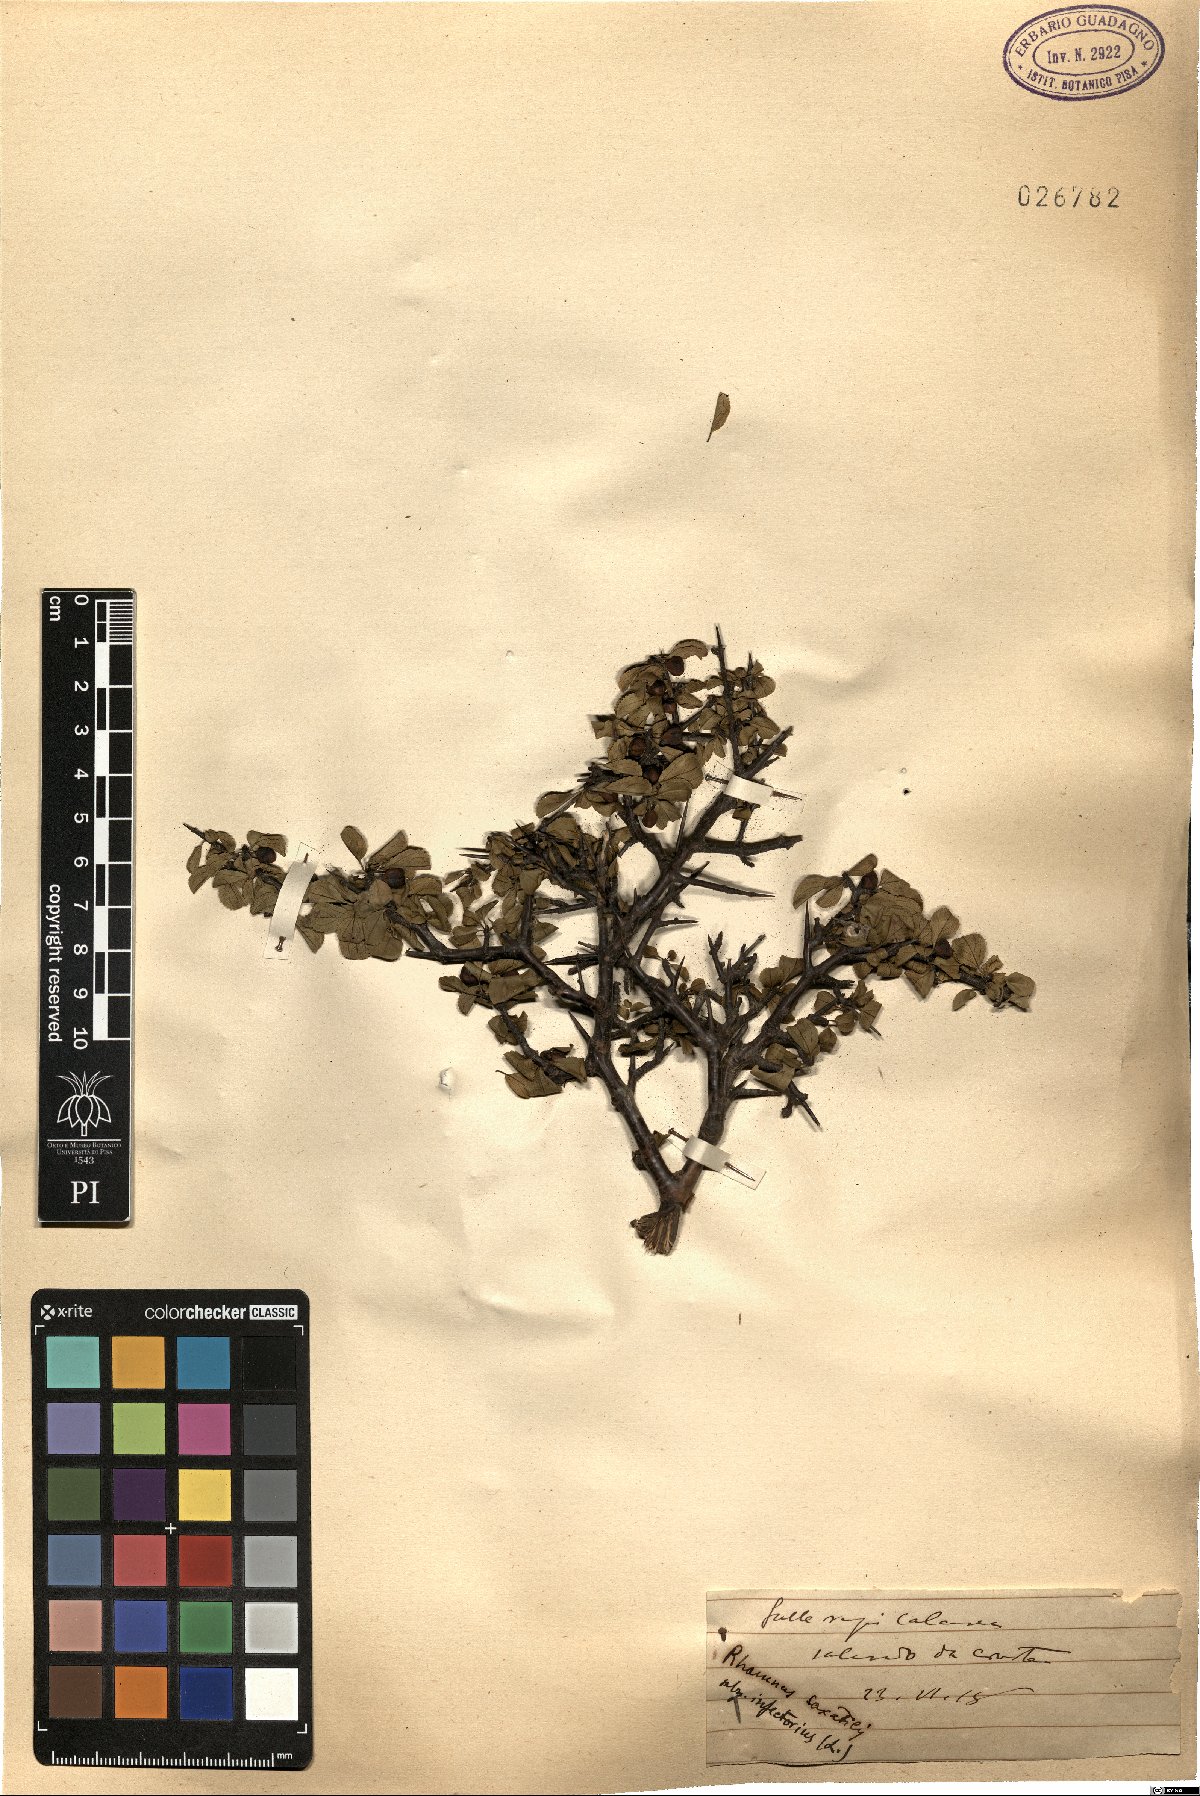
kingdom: Plantae
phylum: Tracheophyta
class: Magnoliopsida
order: Rosales
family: Rhamnaceae
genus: Rhamnus
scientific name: Rhamnus infectoria
